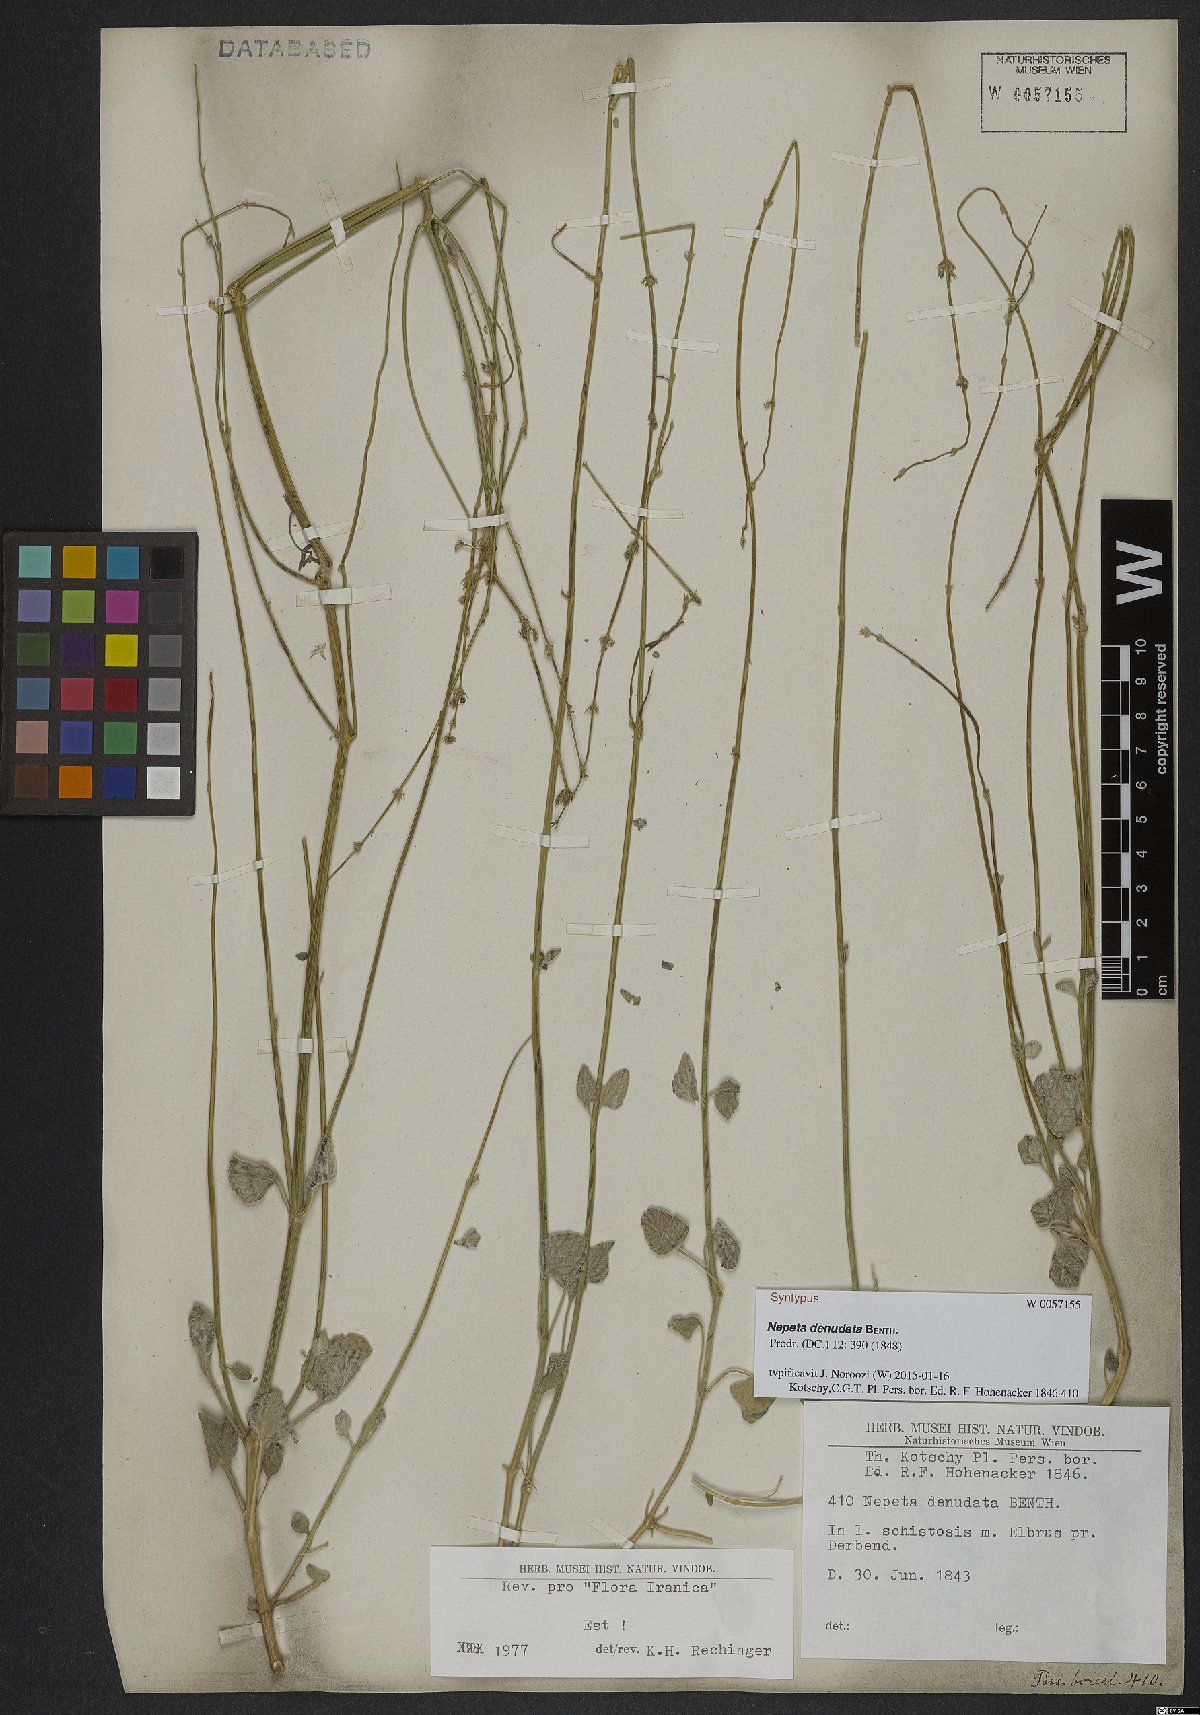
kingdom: Plantae
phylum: Tracheophyta
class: Magnoliopsida
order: Lamiales
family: Lamiaceae
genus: Nepeta
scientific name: Nepeta denudata
